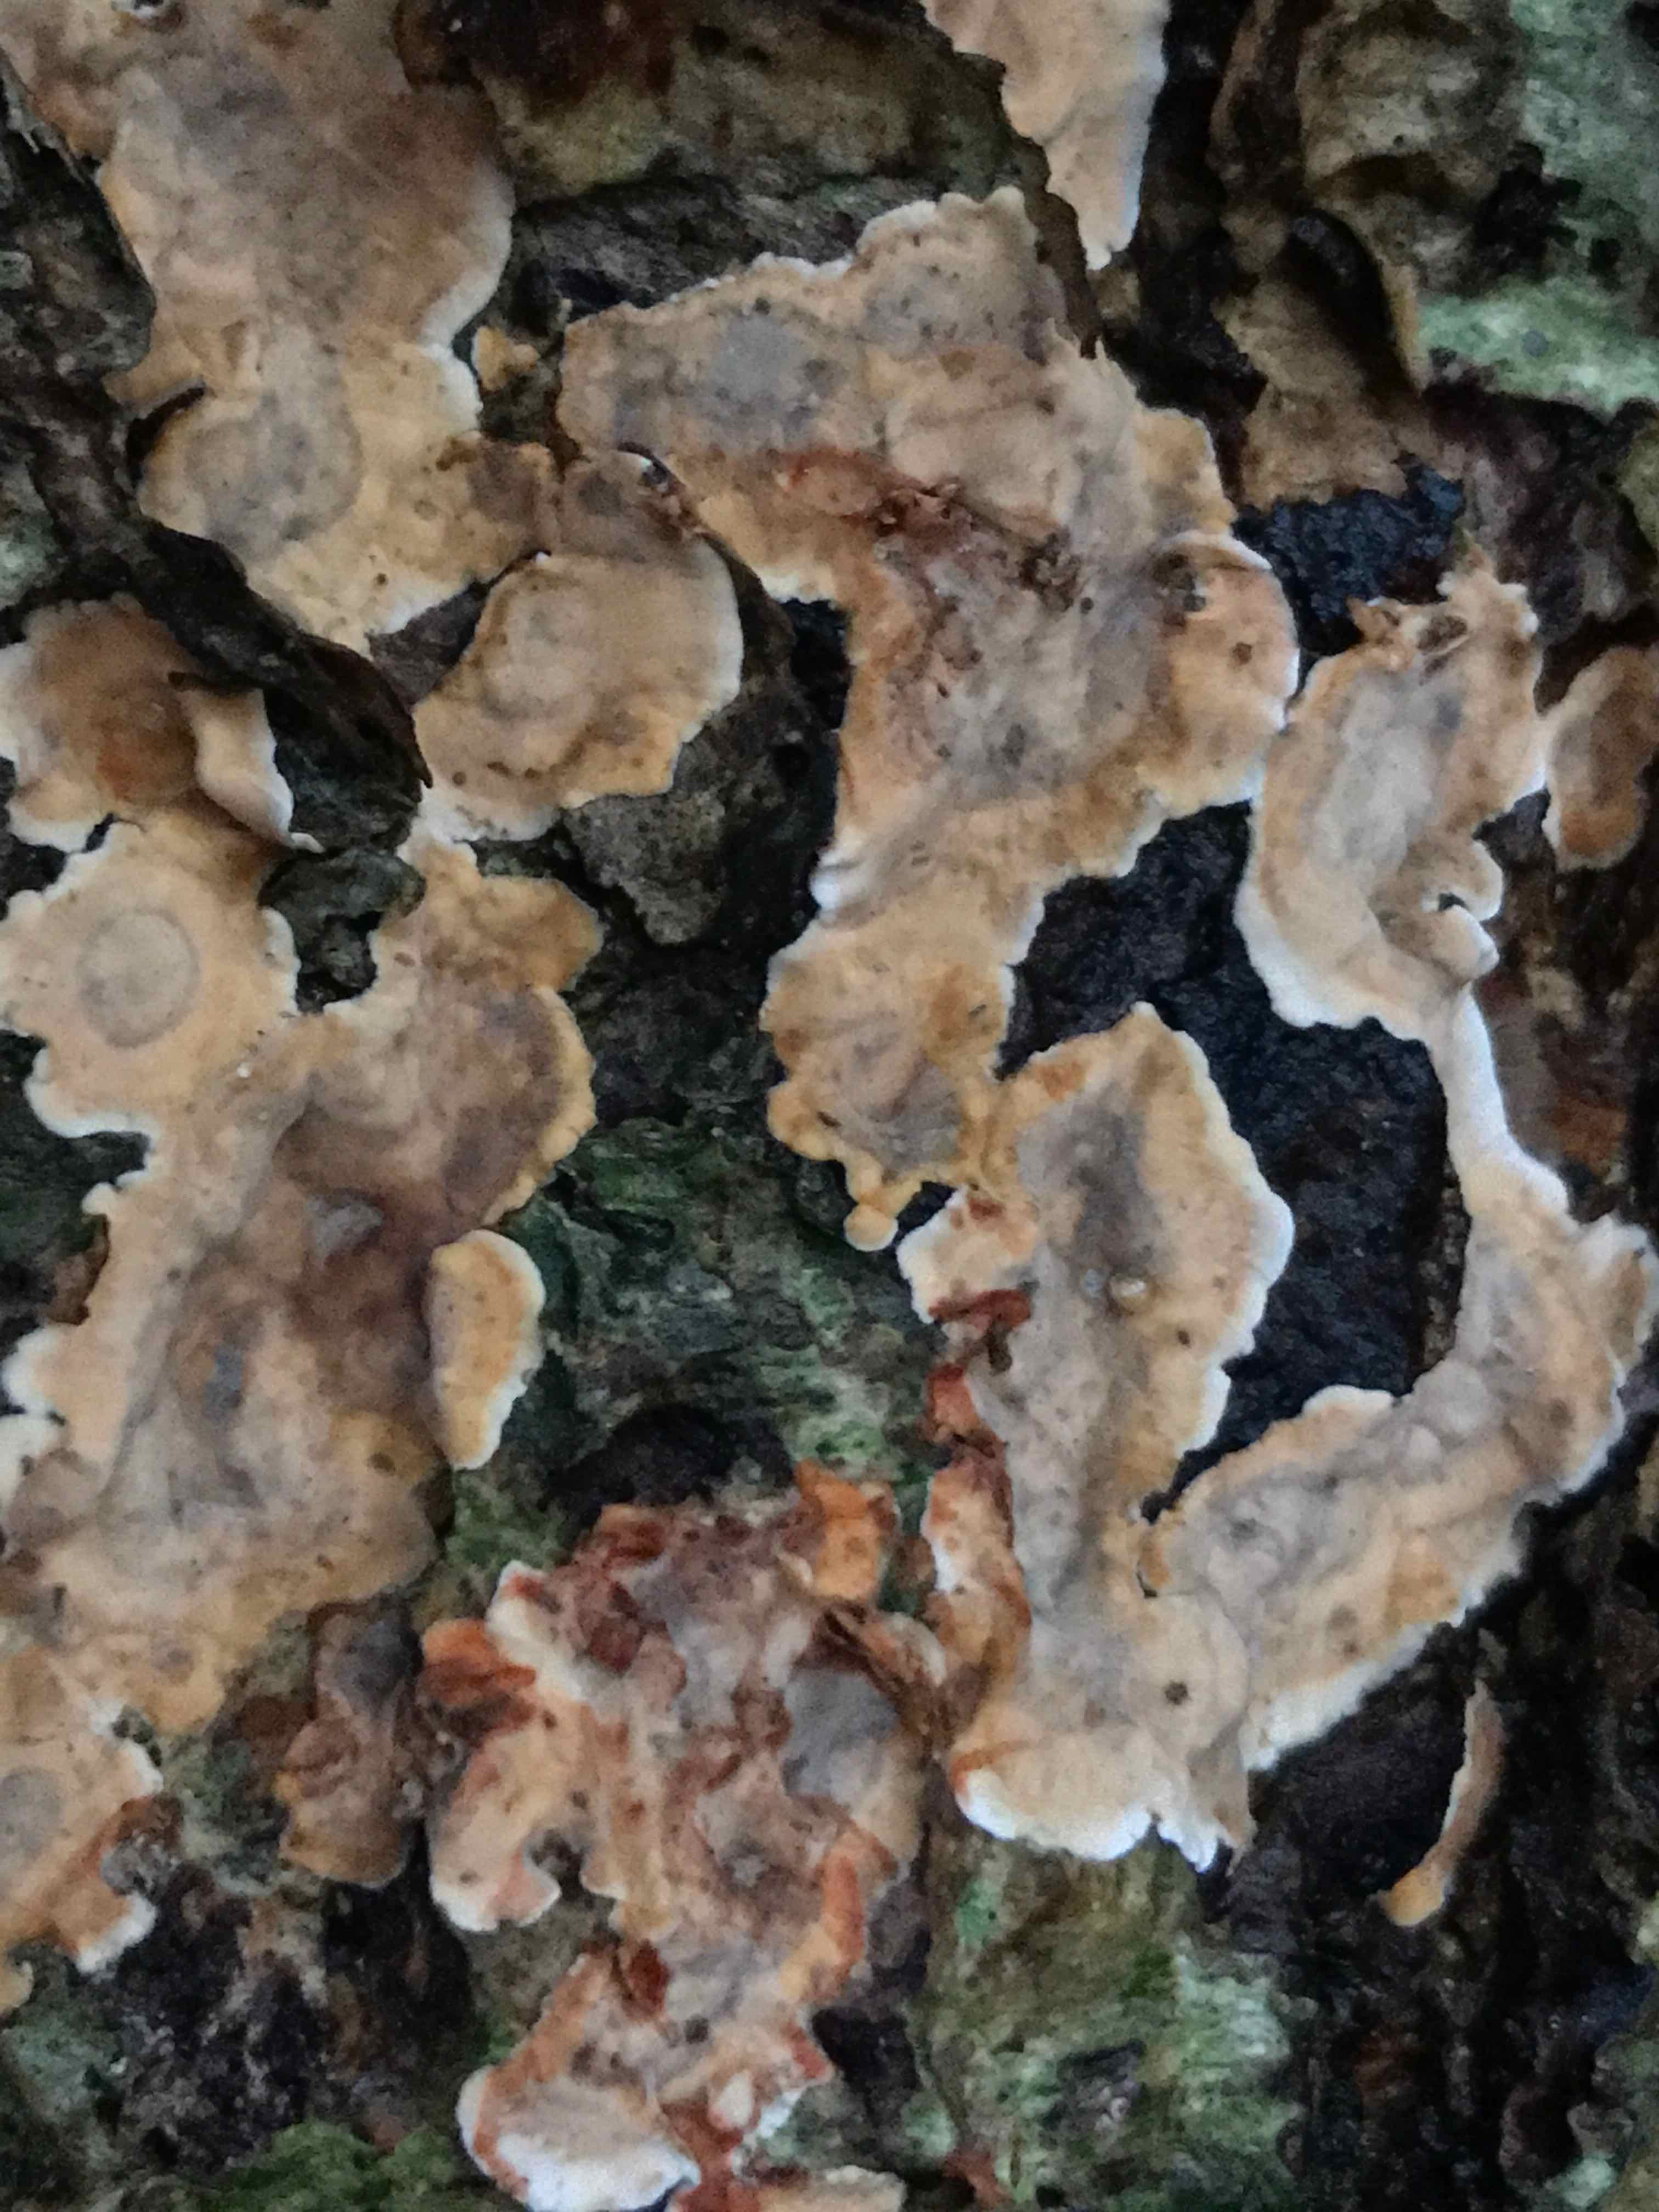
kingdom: Fungi
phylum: Basidiomycota
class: Agaricomycetes
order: Russulales
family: Stereaceae
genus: Stereum
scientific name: Stereum rugosum
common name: rynket lædersvamp
